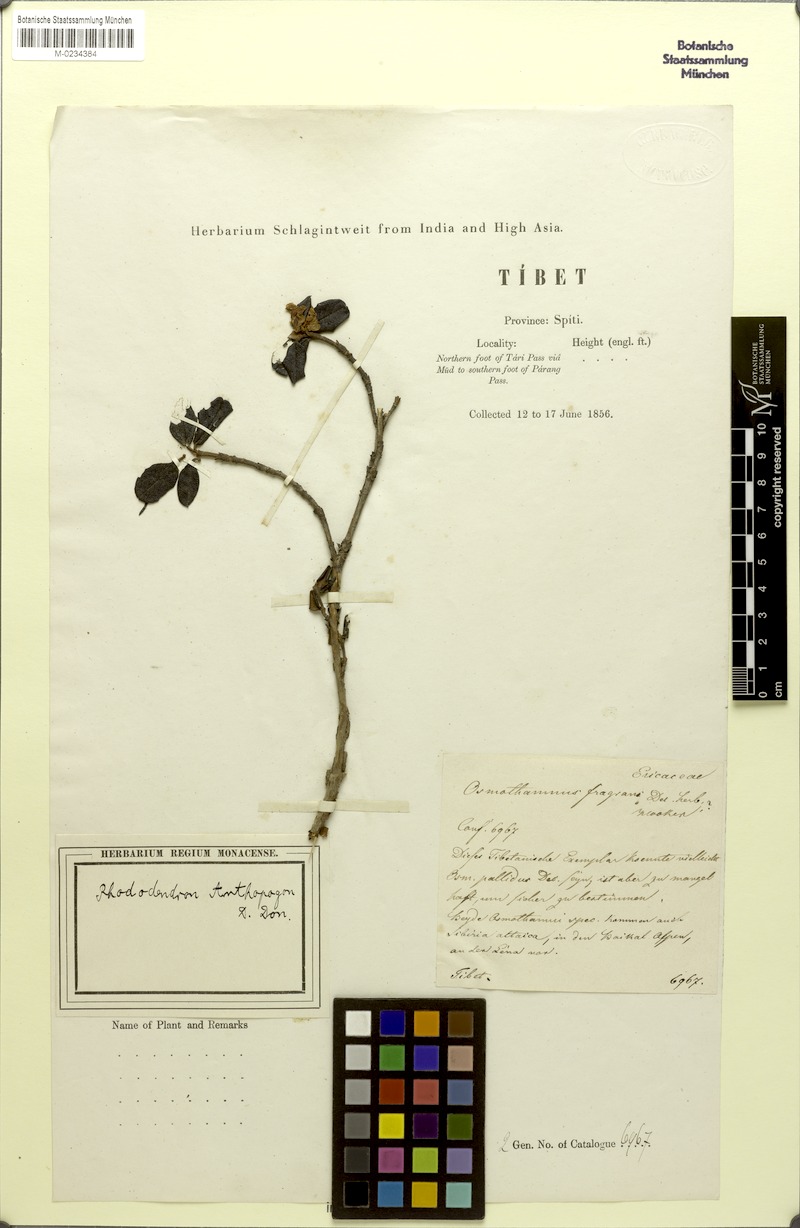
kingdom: Plantae
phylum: Tracheophyta
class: Magnoliopsida
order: Ericales
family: Ericaceae
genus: Rhododendron
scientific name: Rhododendron anthopogon
